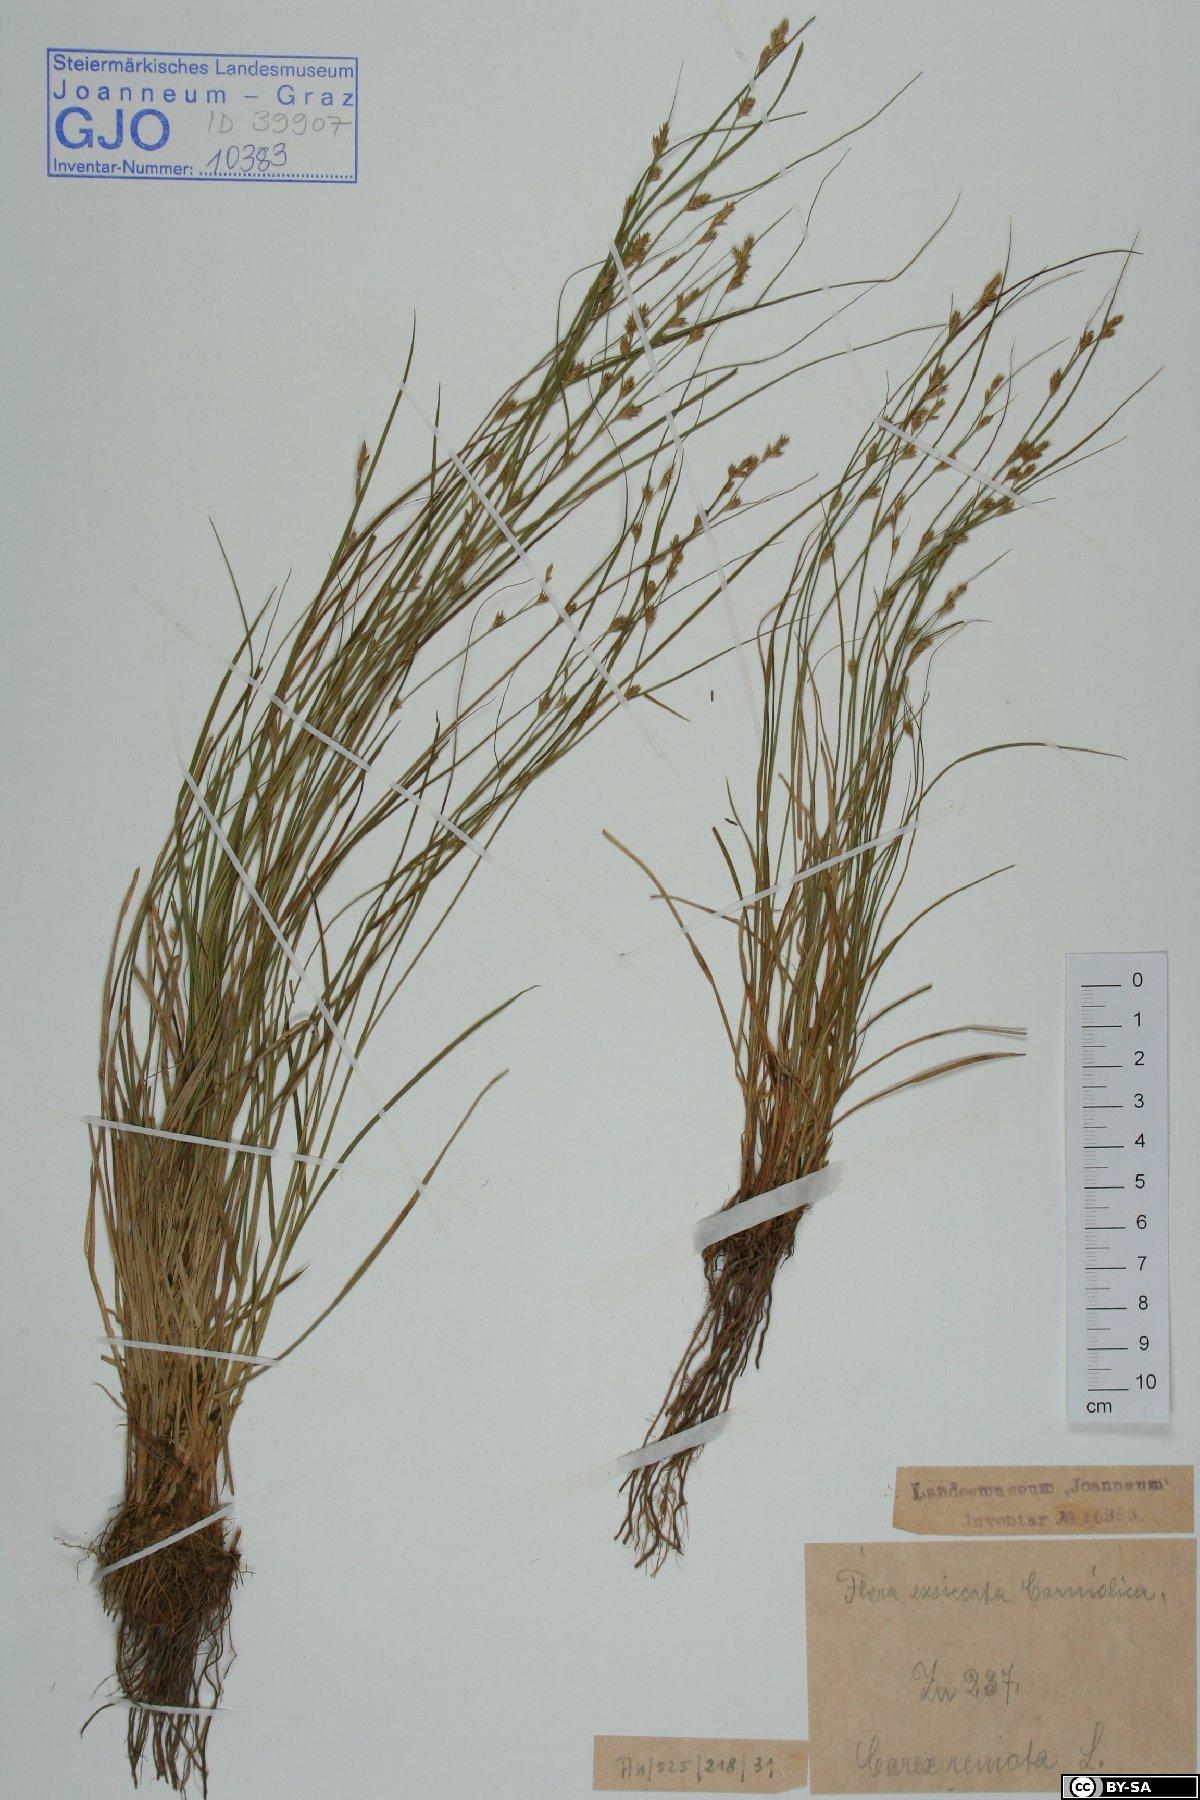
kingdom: Plantae
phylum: Tracheophyta
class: Liliopsida
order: Poales
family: Cyperaceae
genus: Carex
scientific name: Carex remota
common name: Remote sedge
